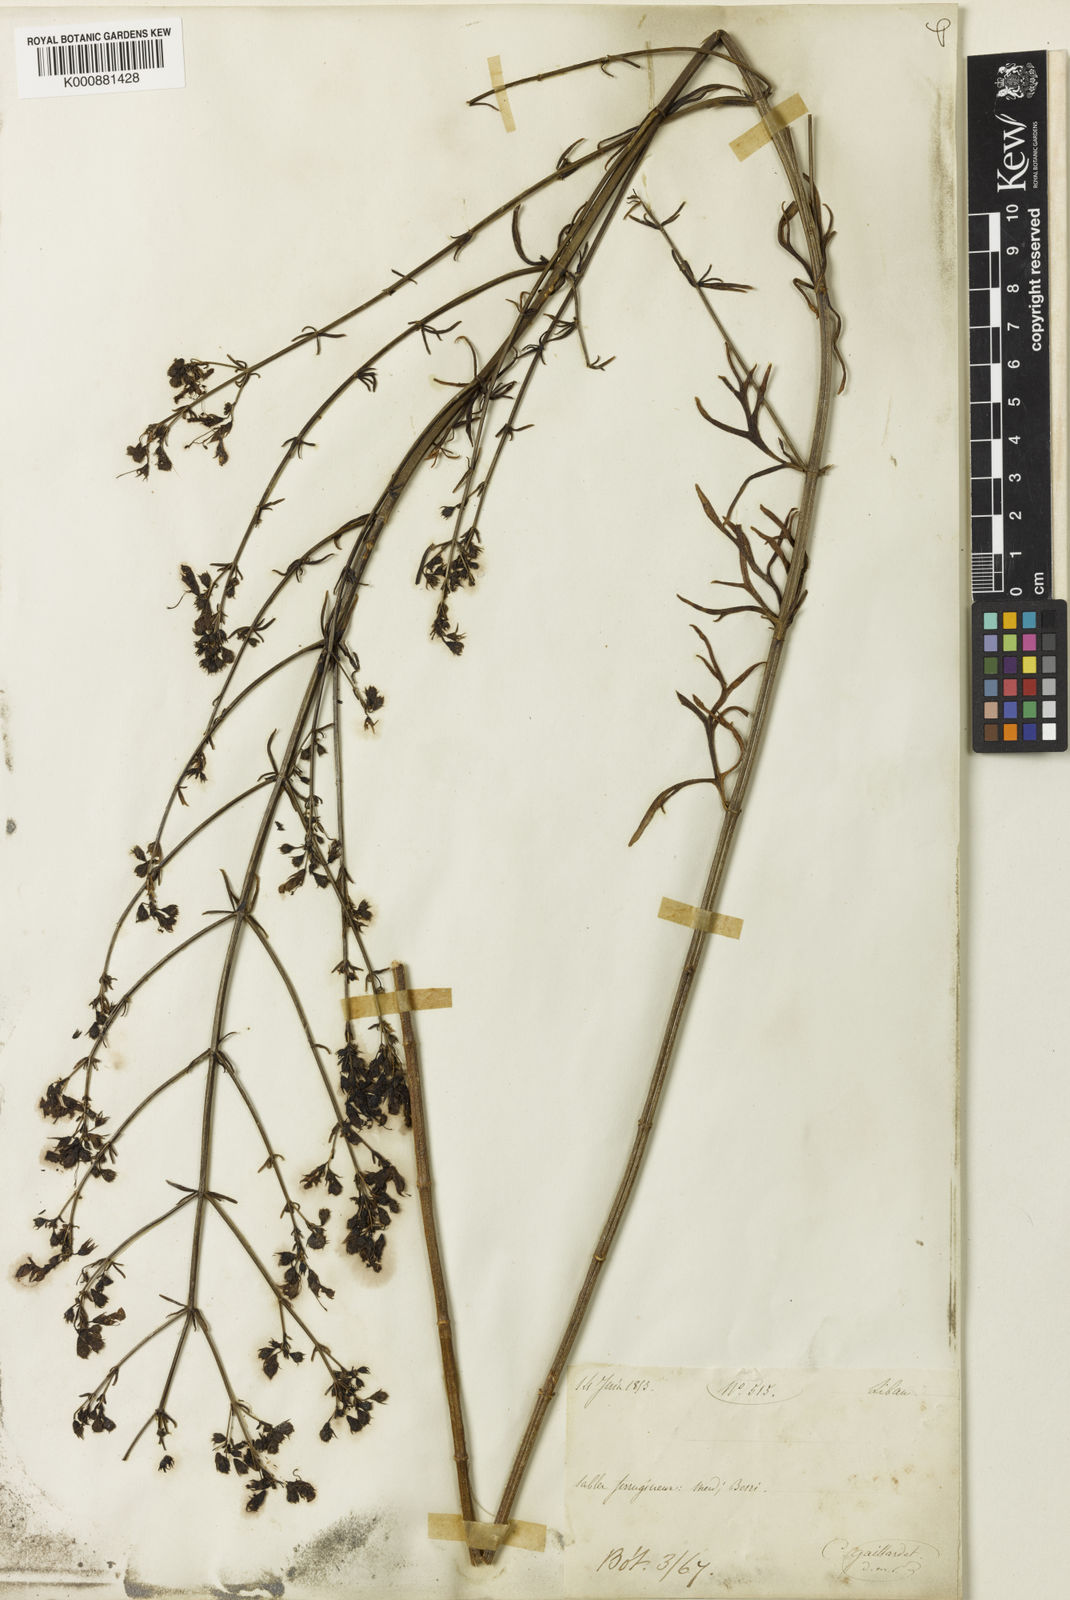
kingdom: Plantae
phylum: Tracheophyta
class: Magnoliopsida
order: Lamiales
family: Lamiaceae
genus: Teucrium
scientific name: Teucrium procerum
